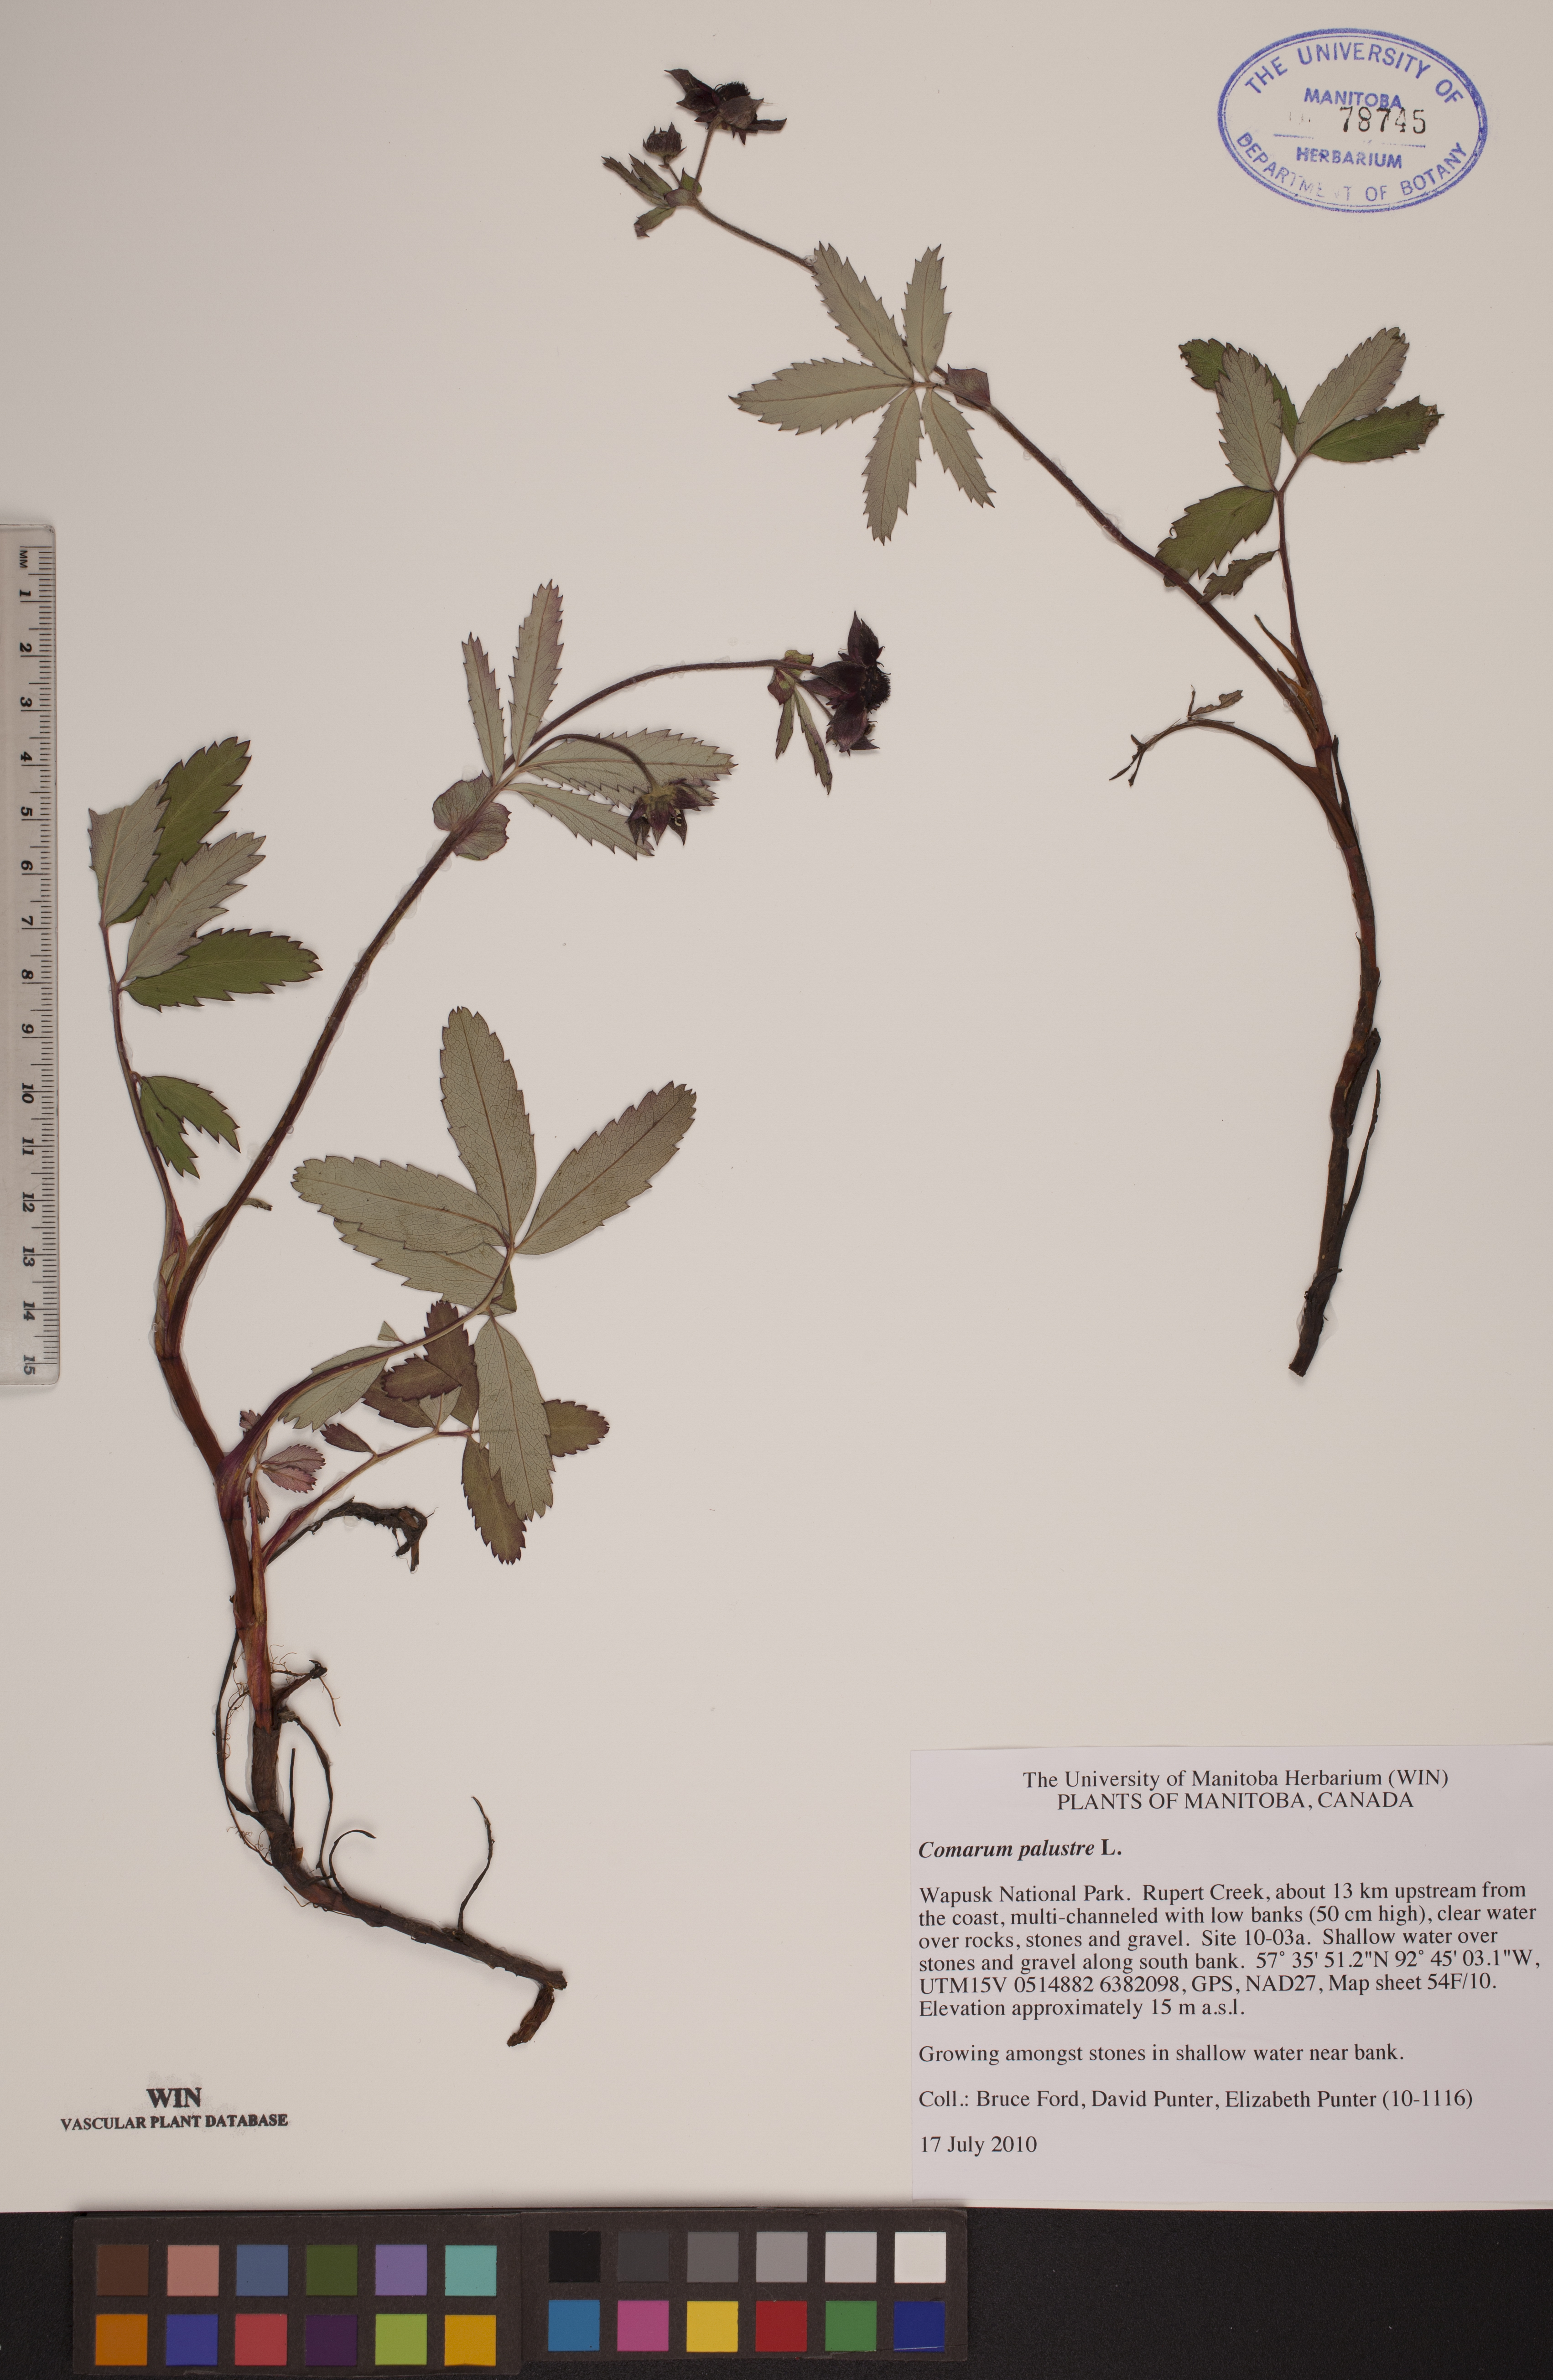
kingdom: Plantae
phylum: Tracheophyta
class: Magnoliopsida
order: Rosales
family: Rosaceae
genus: Comarum
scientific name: Comarum palustre
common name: Marsh cinquefoil
